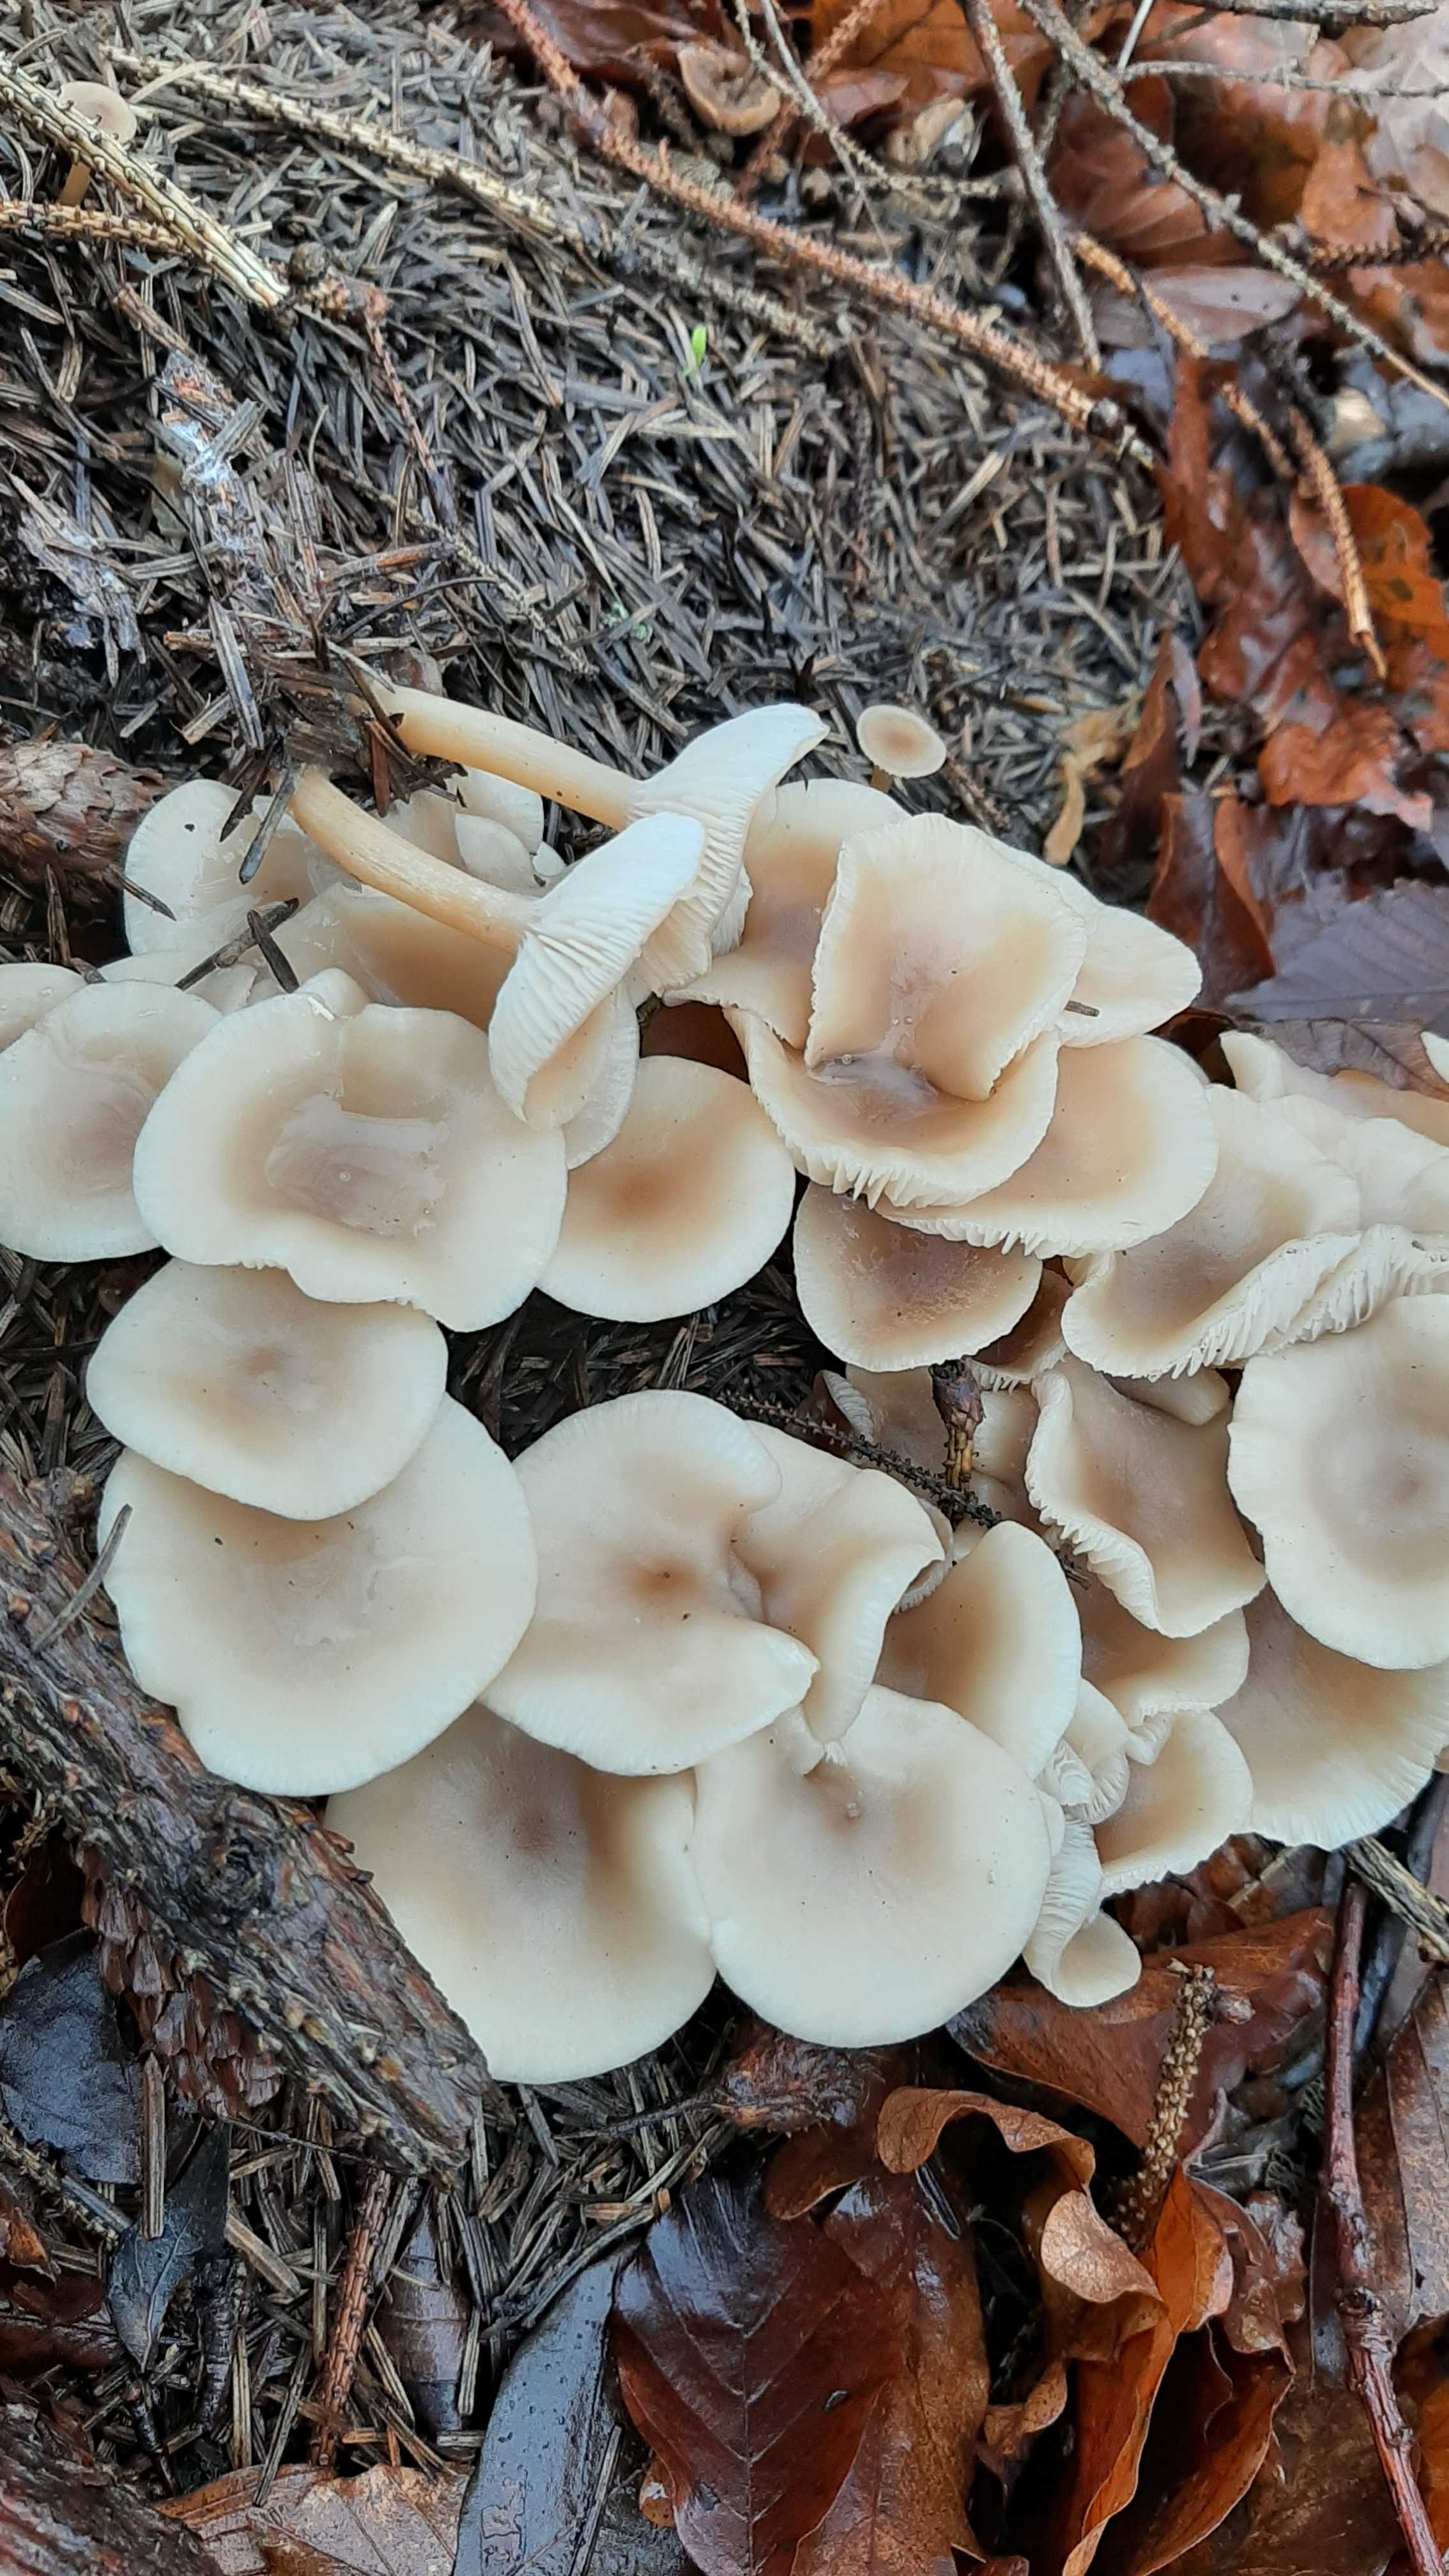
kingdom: Fungi
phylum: Basidiomycota
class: Agaricomycetes
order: Agaricales
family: Tricholomataceae
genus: Clitocybe
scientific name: Clitocybe
